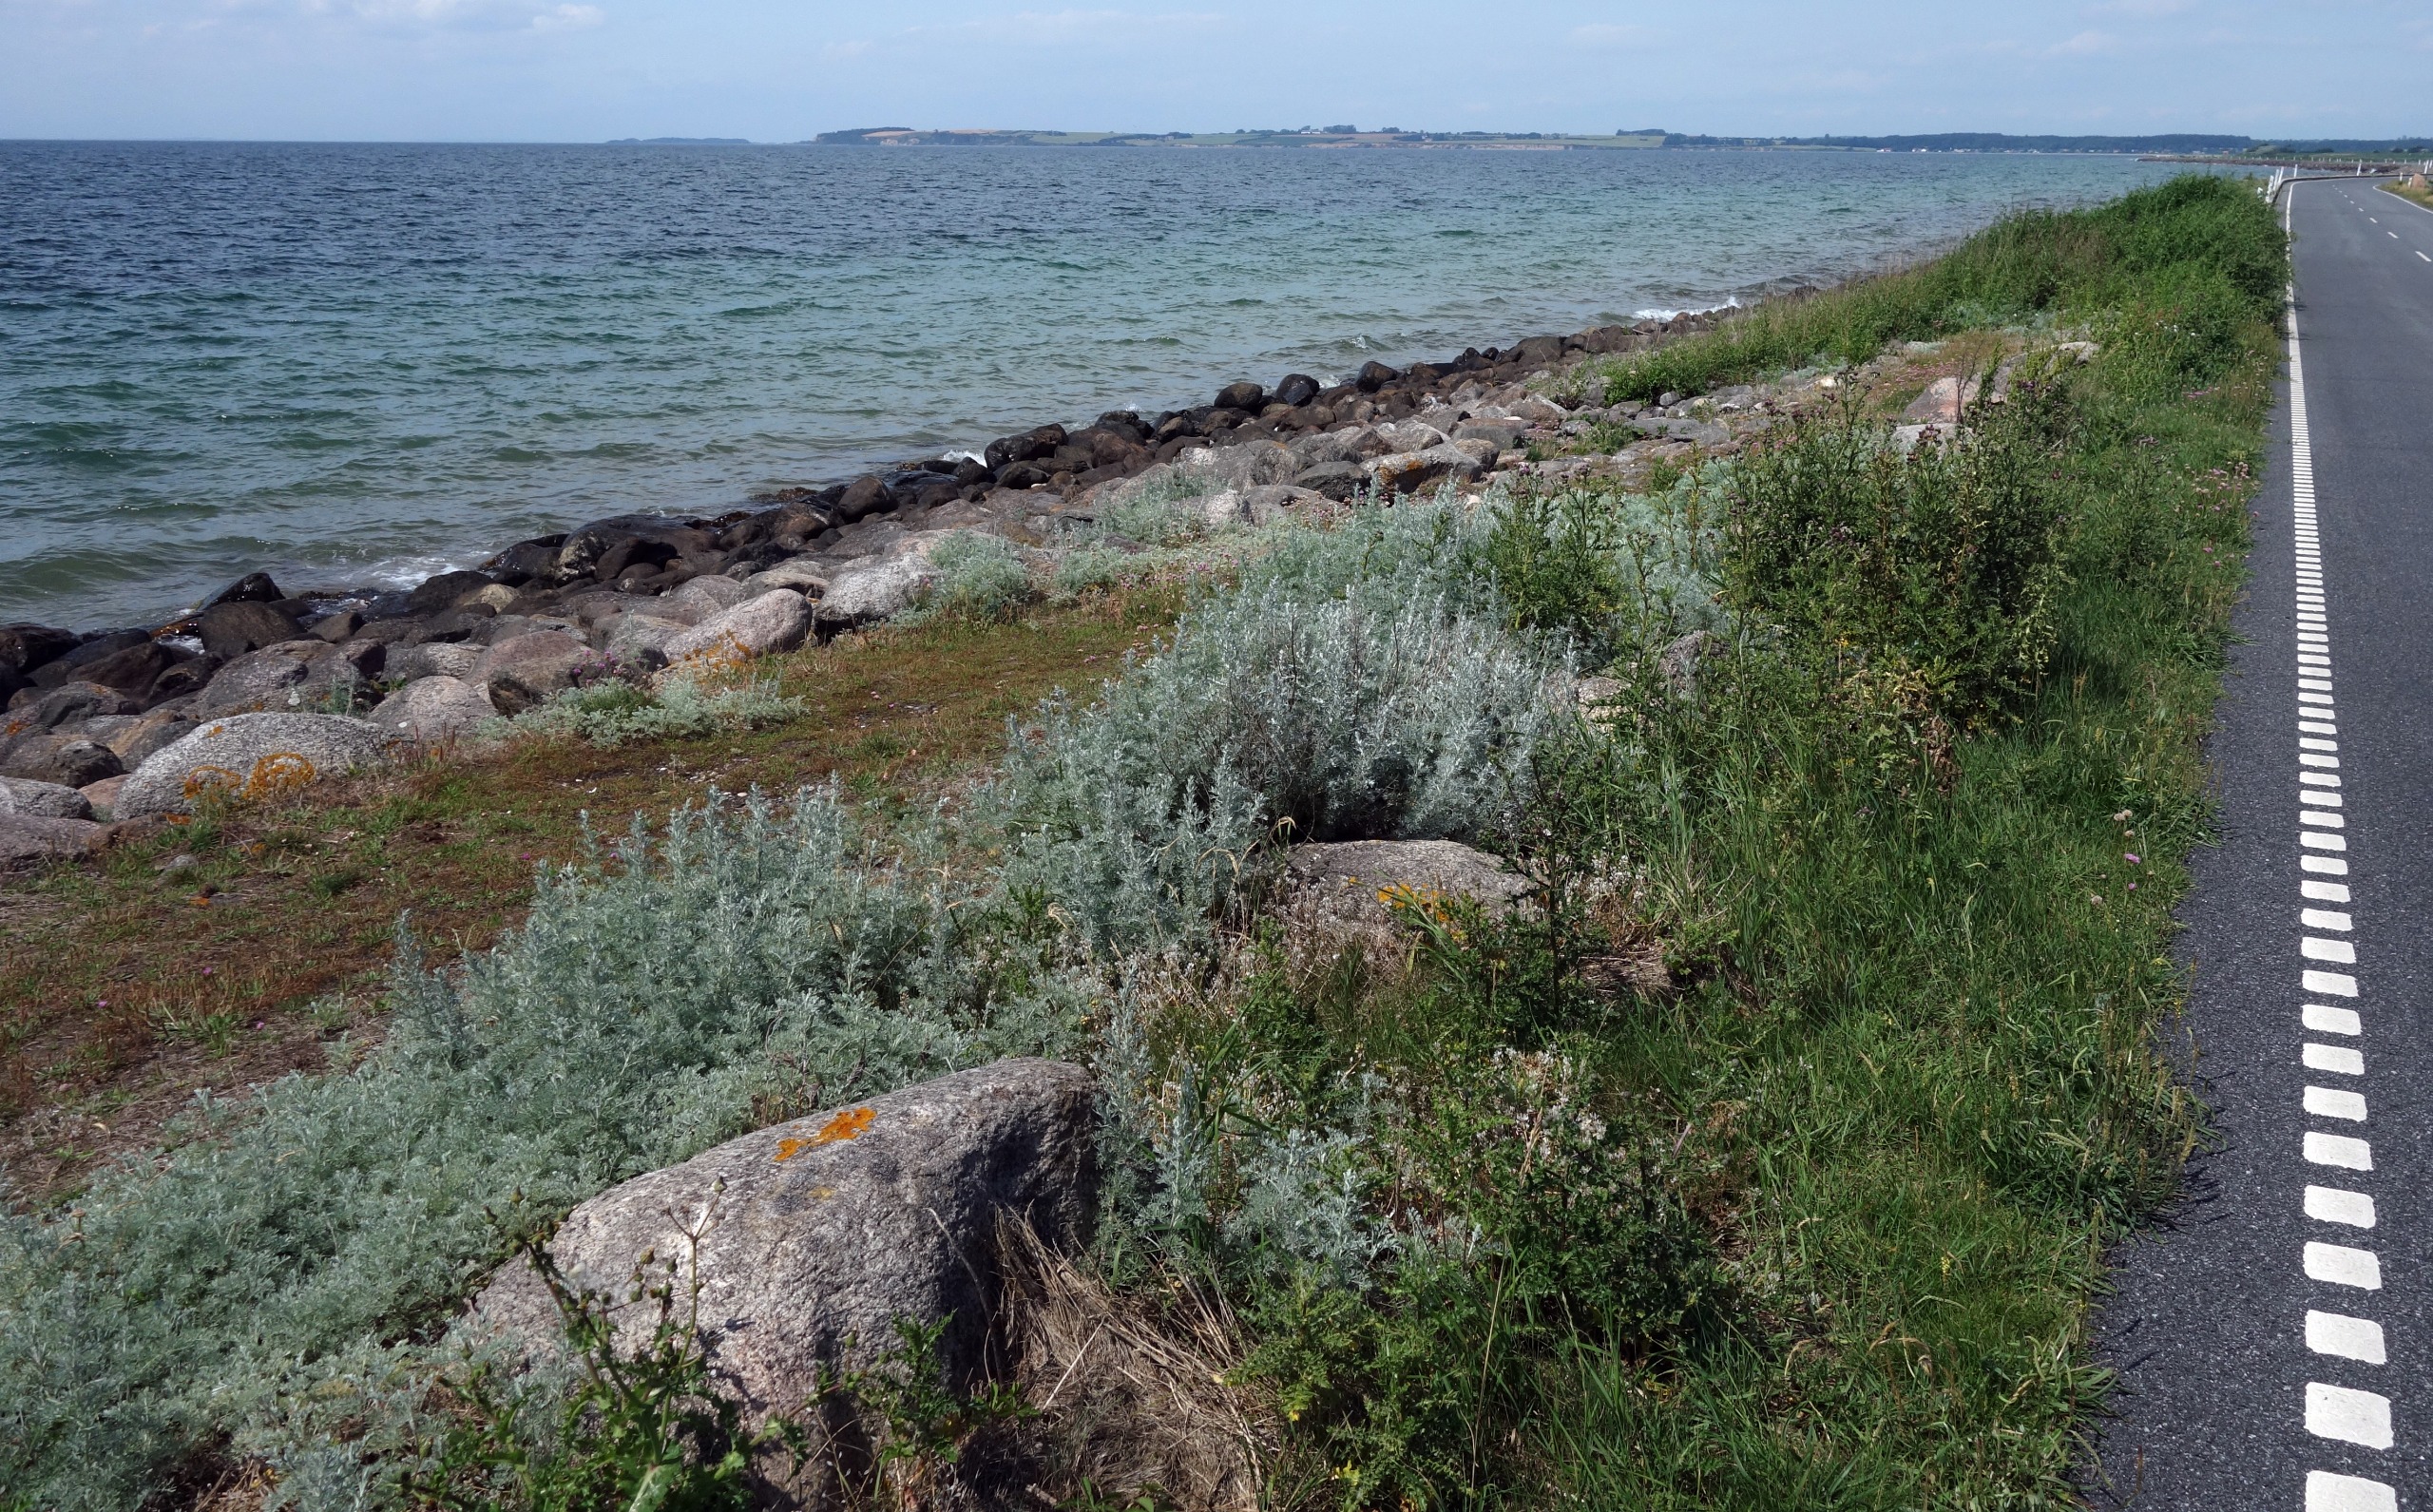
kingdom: Plantae
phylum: Tracheophyta
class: Magnoliopsida
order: Asterales
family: Asteraceae
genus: Artemisia
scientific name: Artemisia maritima
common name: Strandmalurt
